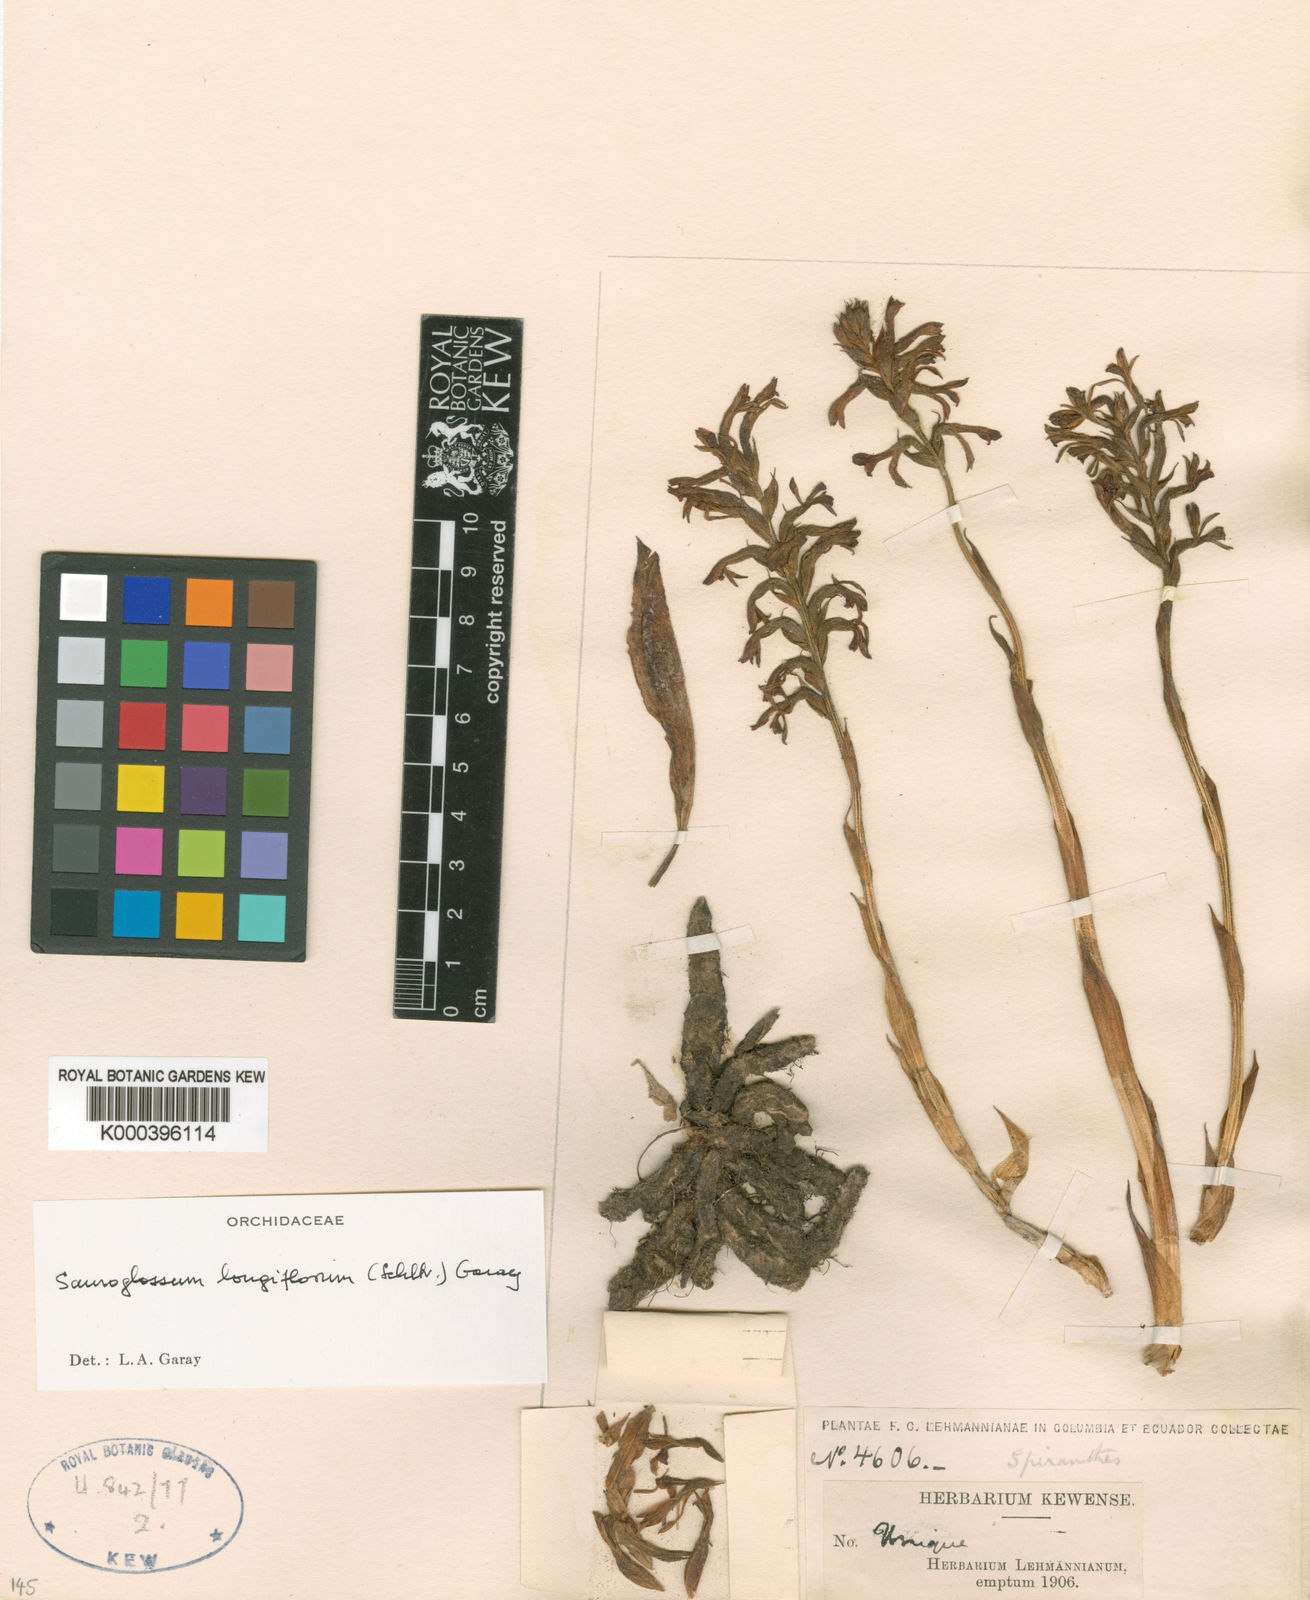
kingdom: Plantae
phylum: Tracheophyta
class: Liliopsida
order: Asparagales
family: Orchidaceae
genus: Sauroglossum
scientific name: Sauroglossum longiflorum
